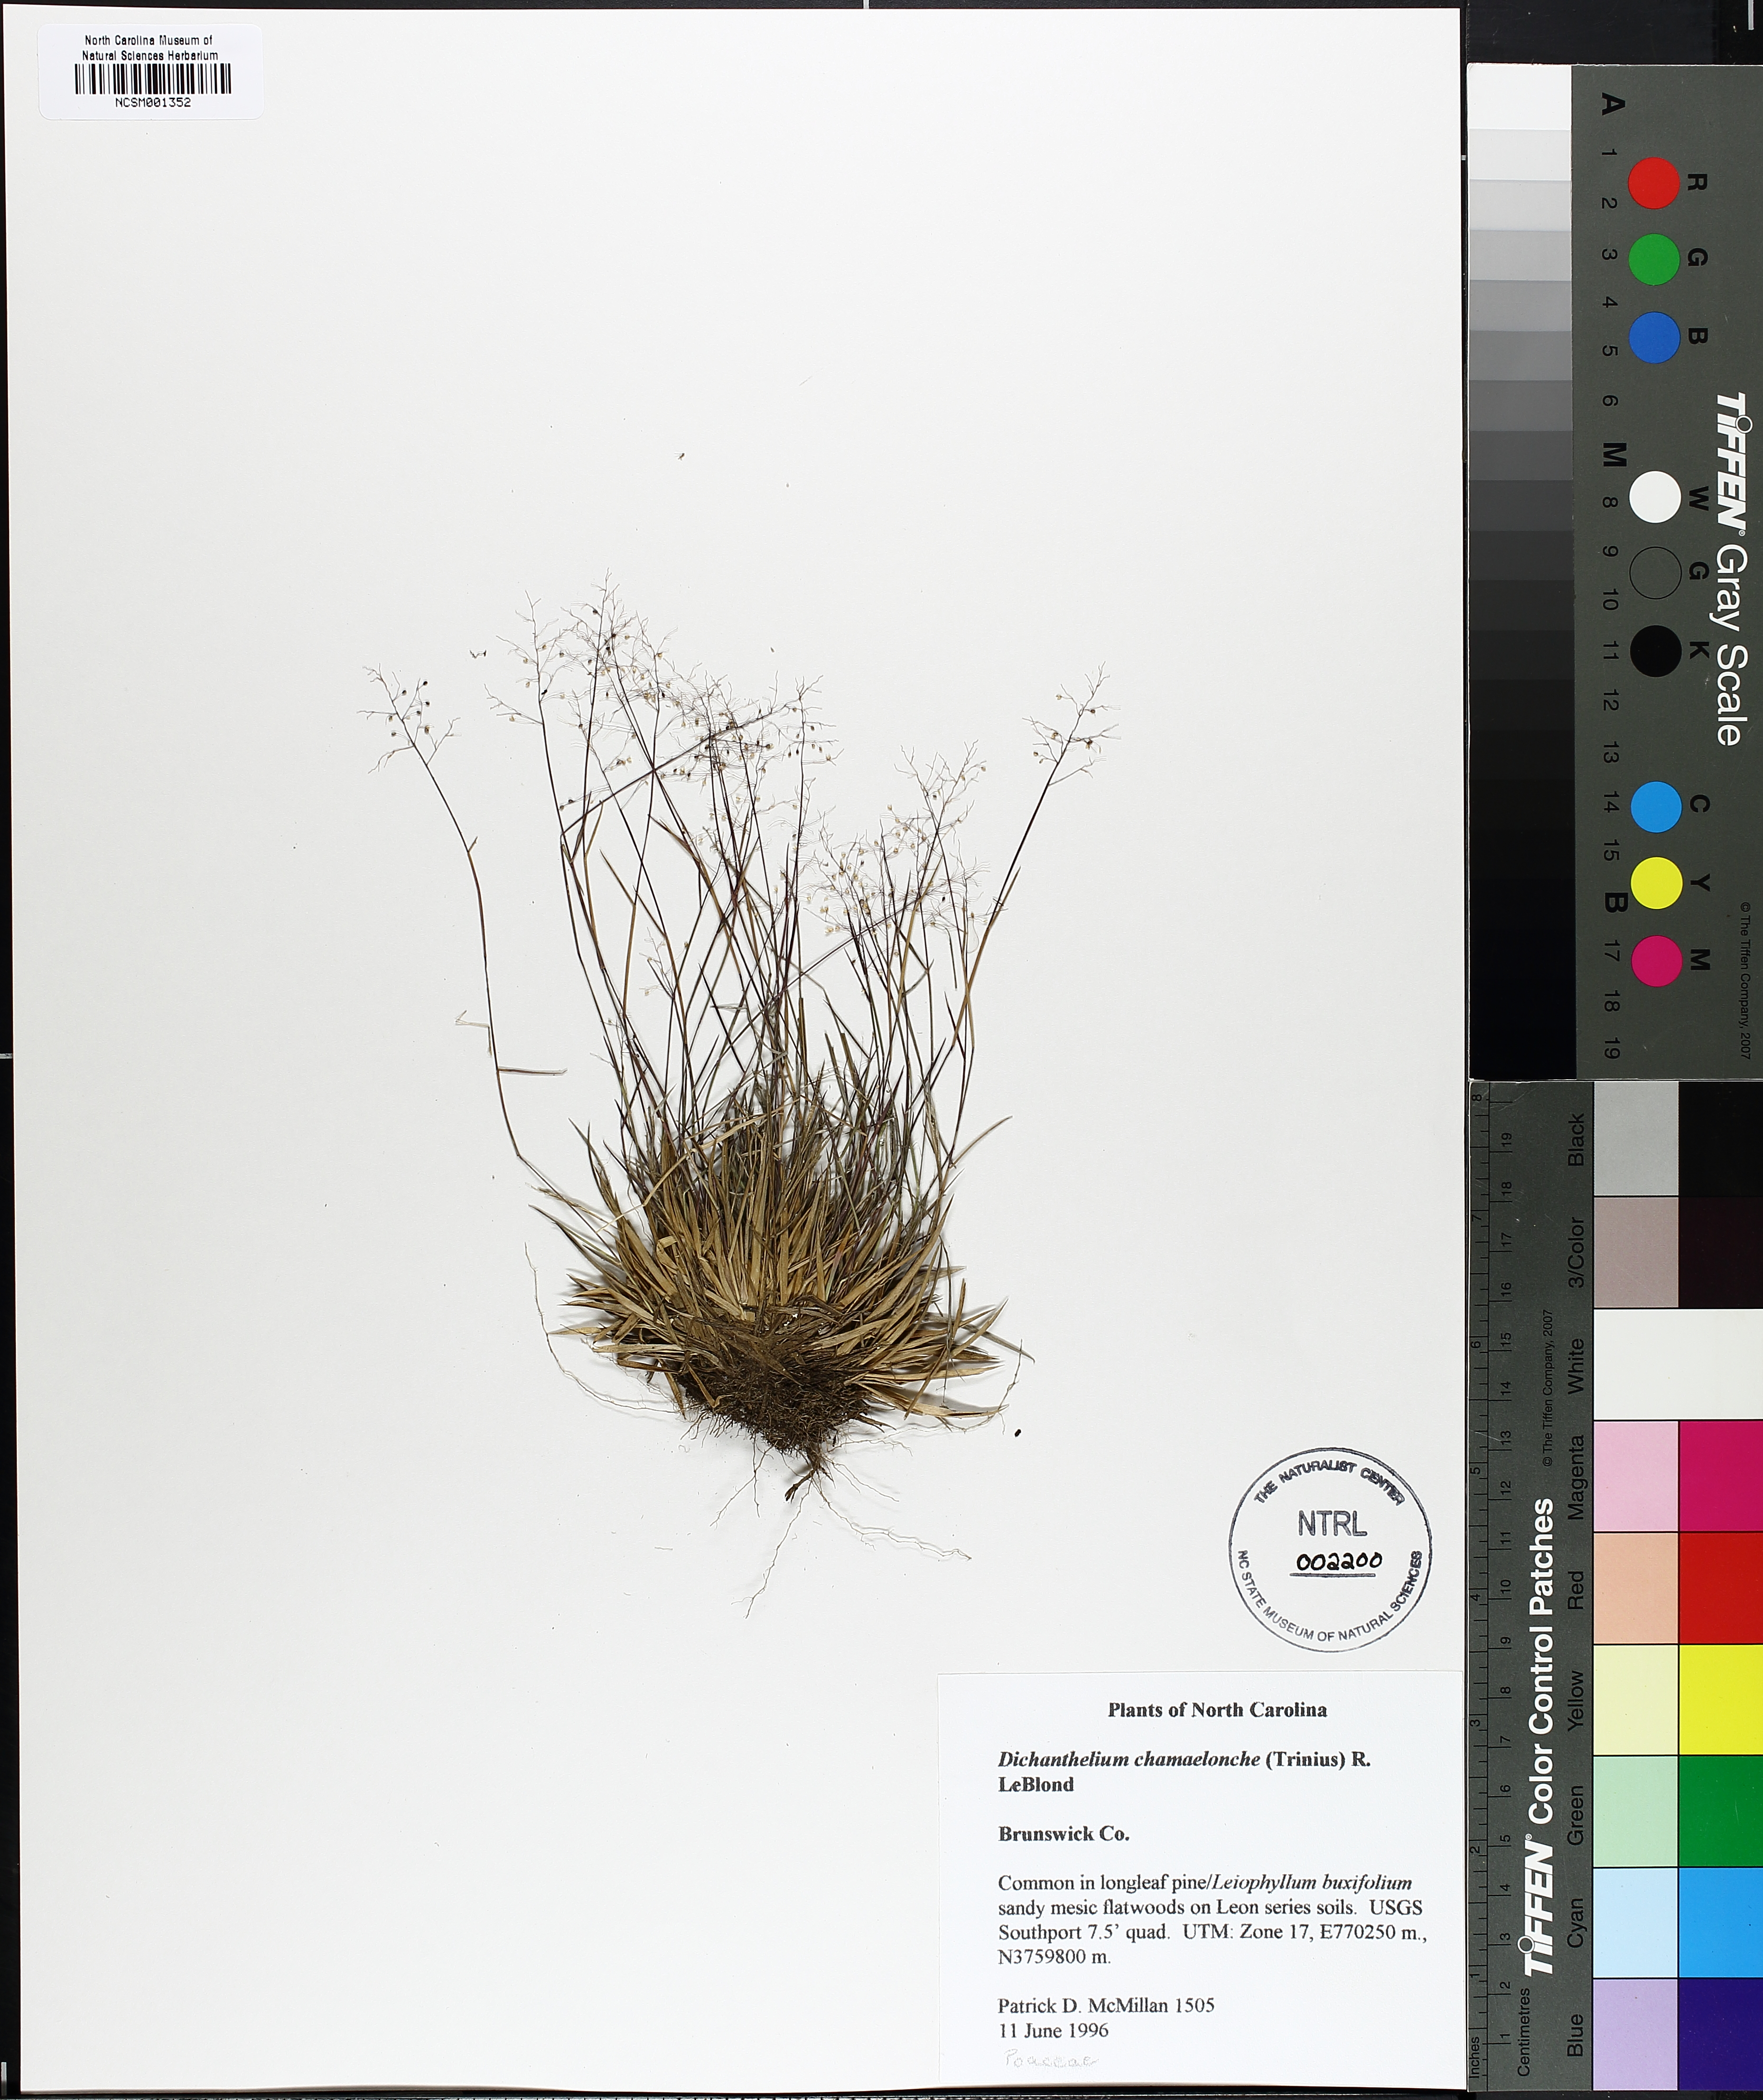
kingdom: Plantae
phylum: Tracheophyta
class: Liliopsida
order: Poales
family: Poaceae
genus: Dichanthelium
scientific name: Dichanthelium chamaelonche
